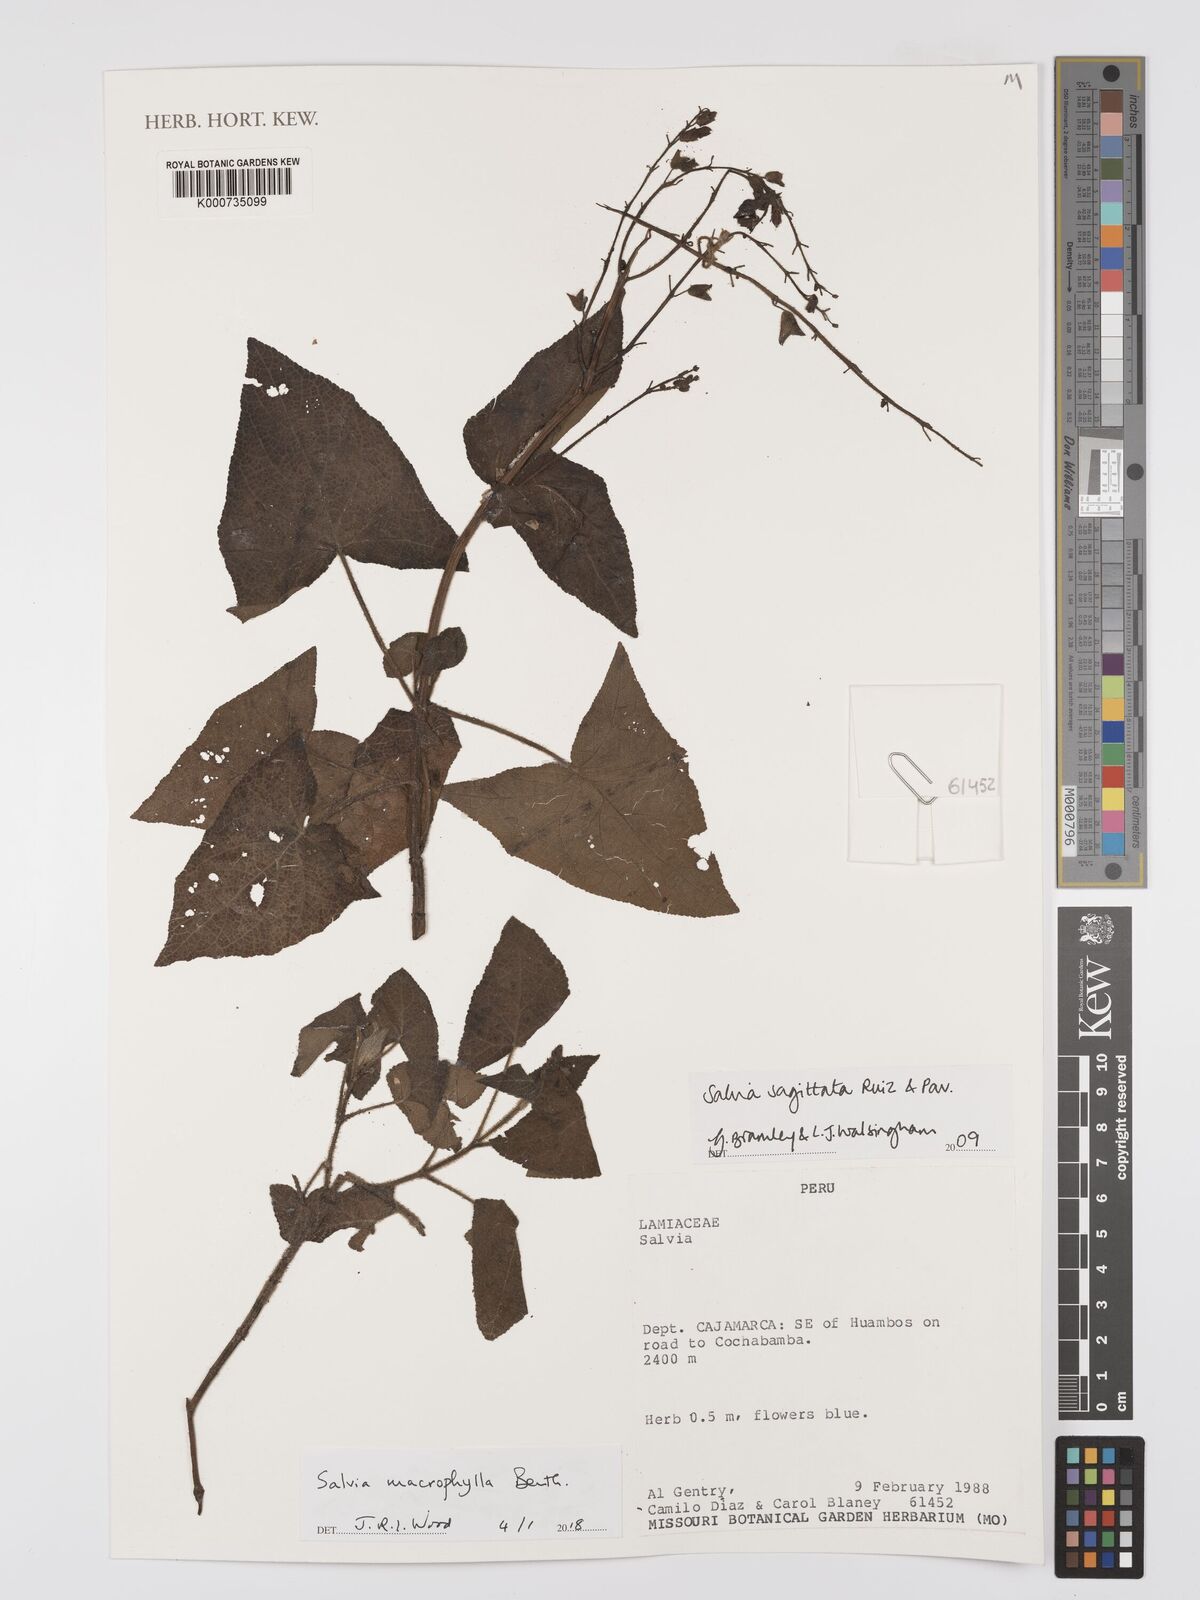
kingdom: Plantae
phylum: Tracheophyta
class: Magnoliopsida
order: Lamiales
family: Lamiaceae
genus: Salvia
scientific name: Salvia macrophylla
